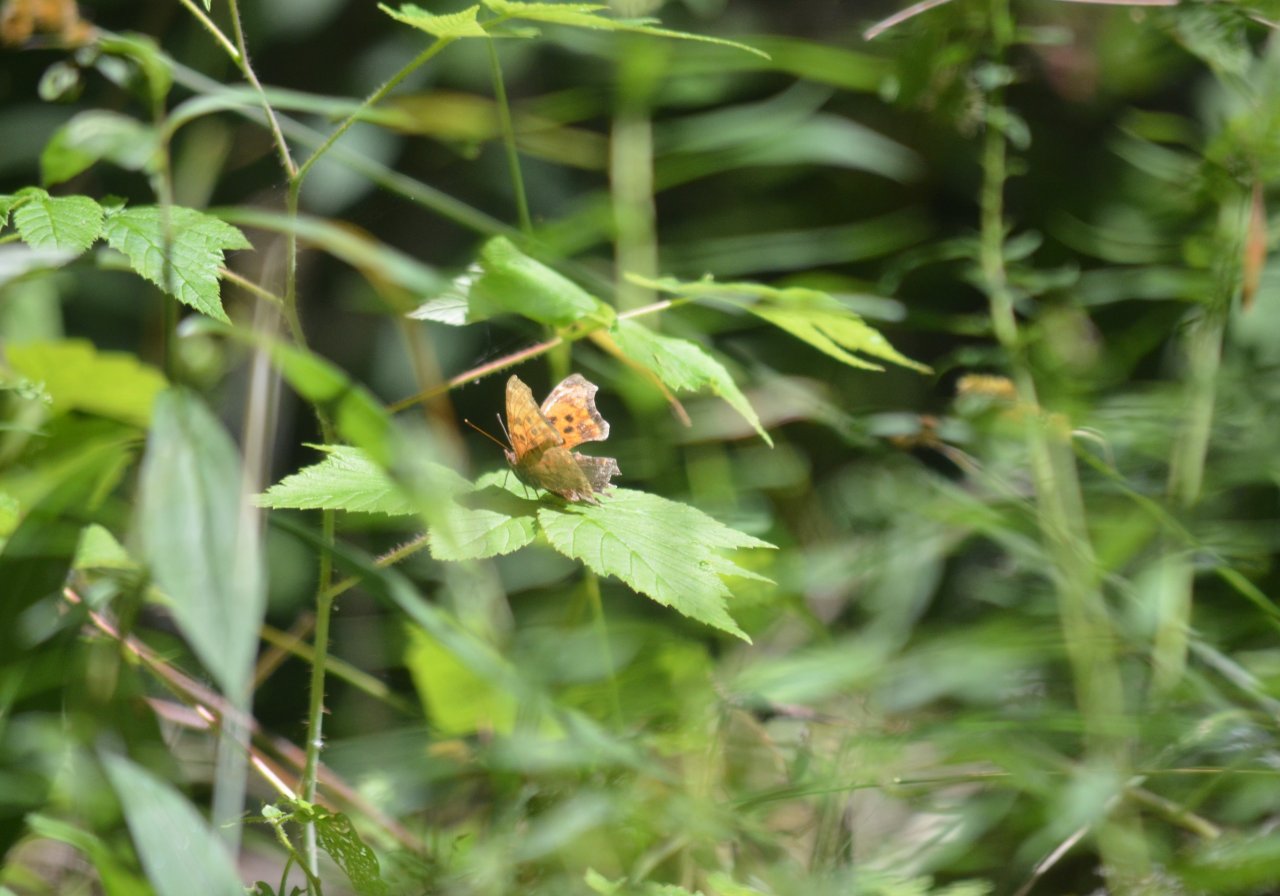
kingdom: Animalia
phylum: Arthropoda
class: Insecta
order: Lepidoptera
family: Nymphalidae
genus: Polygonia
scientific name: Polygonia
